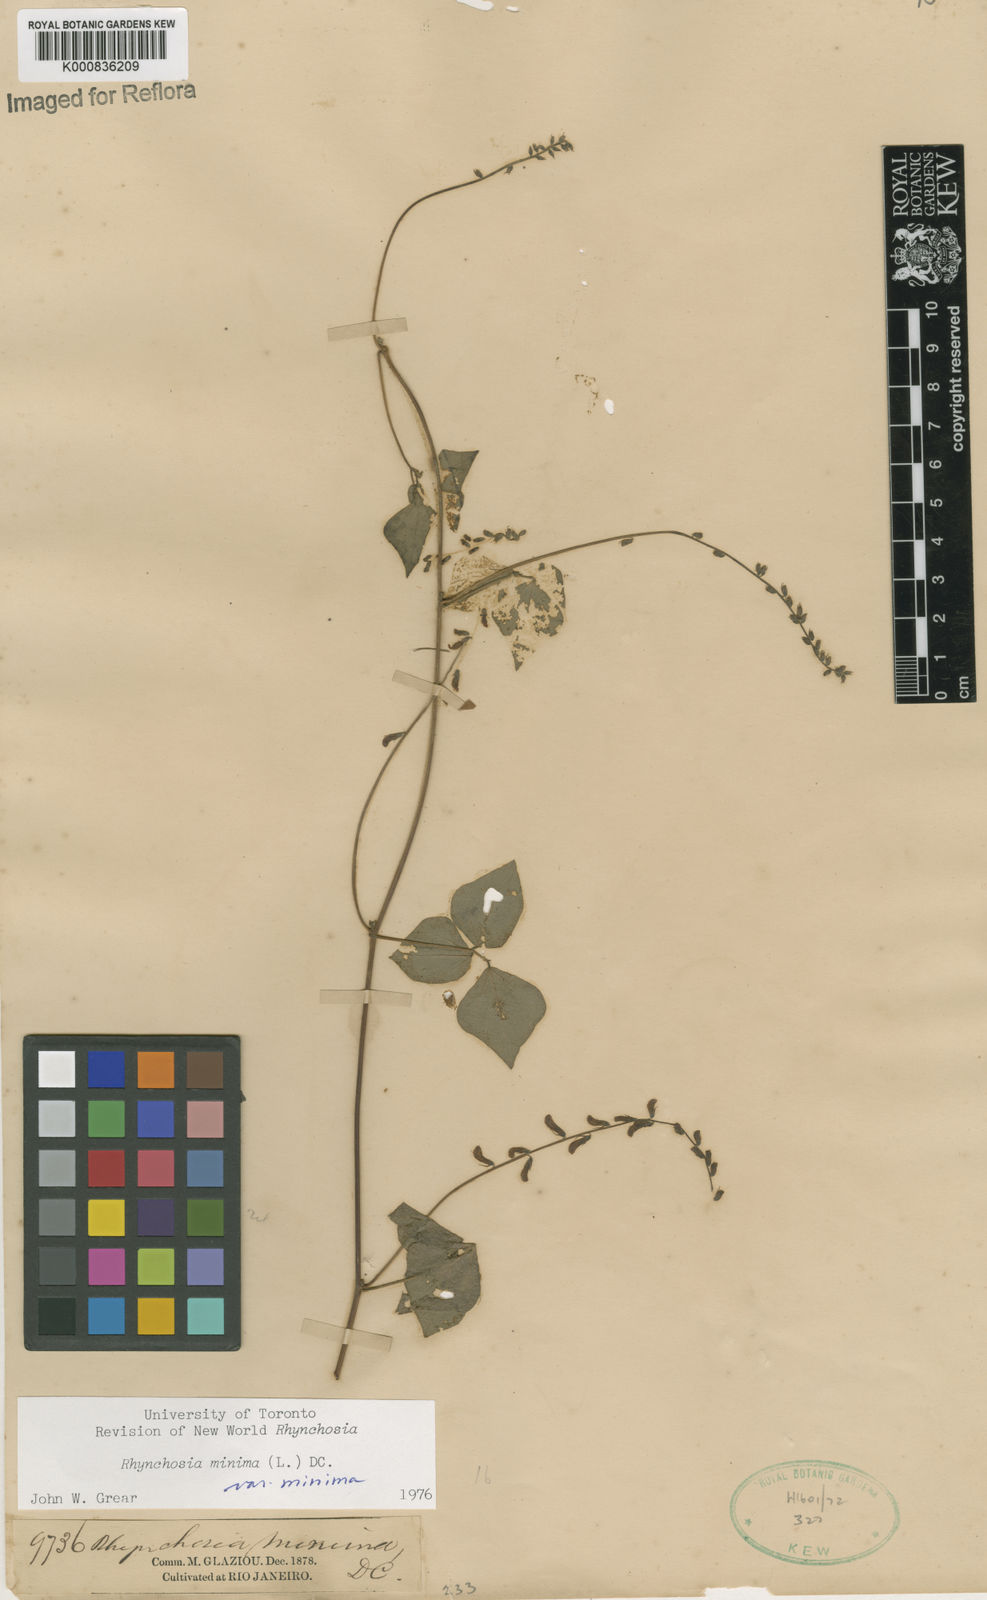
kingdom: Plantae
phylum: Tracheophyta
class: Magnoliopsida
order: Fabales
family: Fabaceae
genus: Rhynchosia
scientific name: Rhynchosia minima
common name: Least snoutbean
